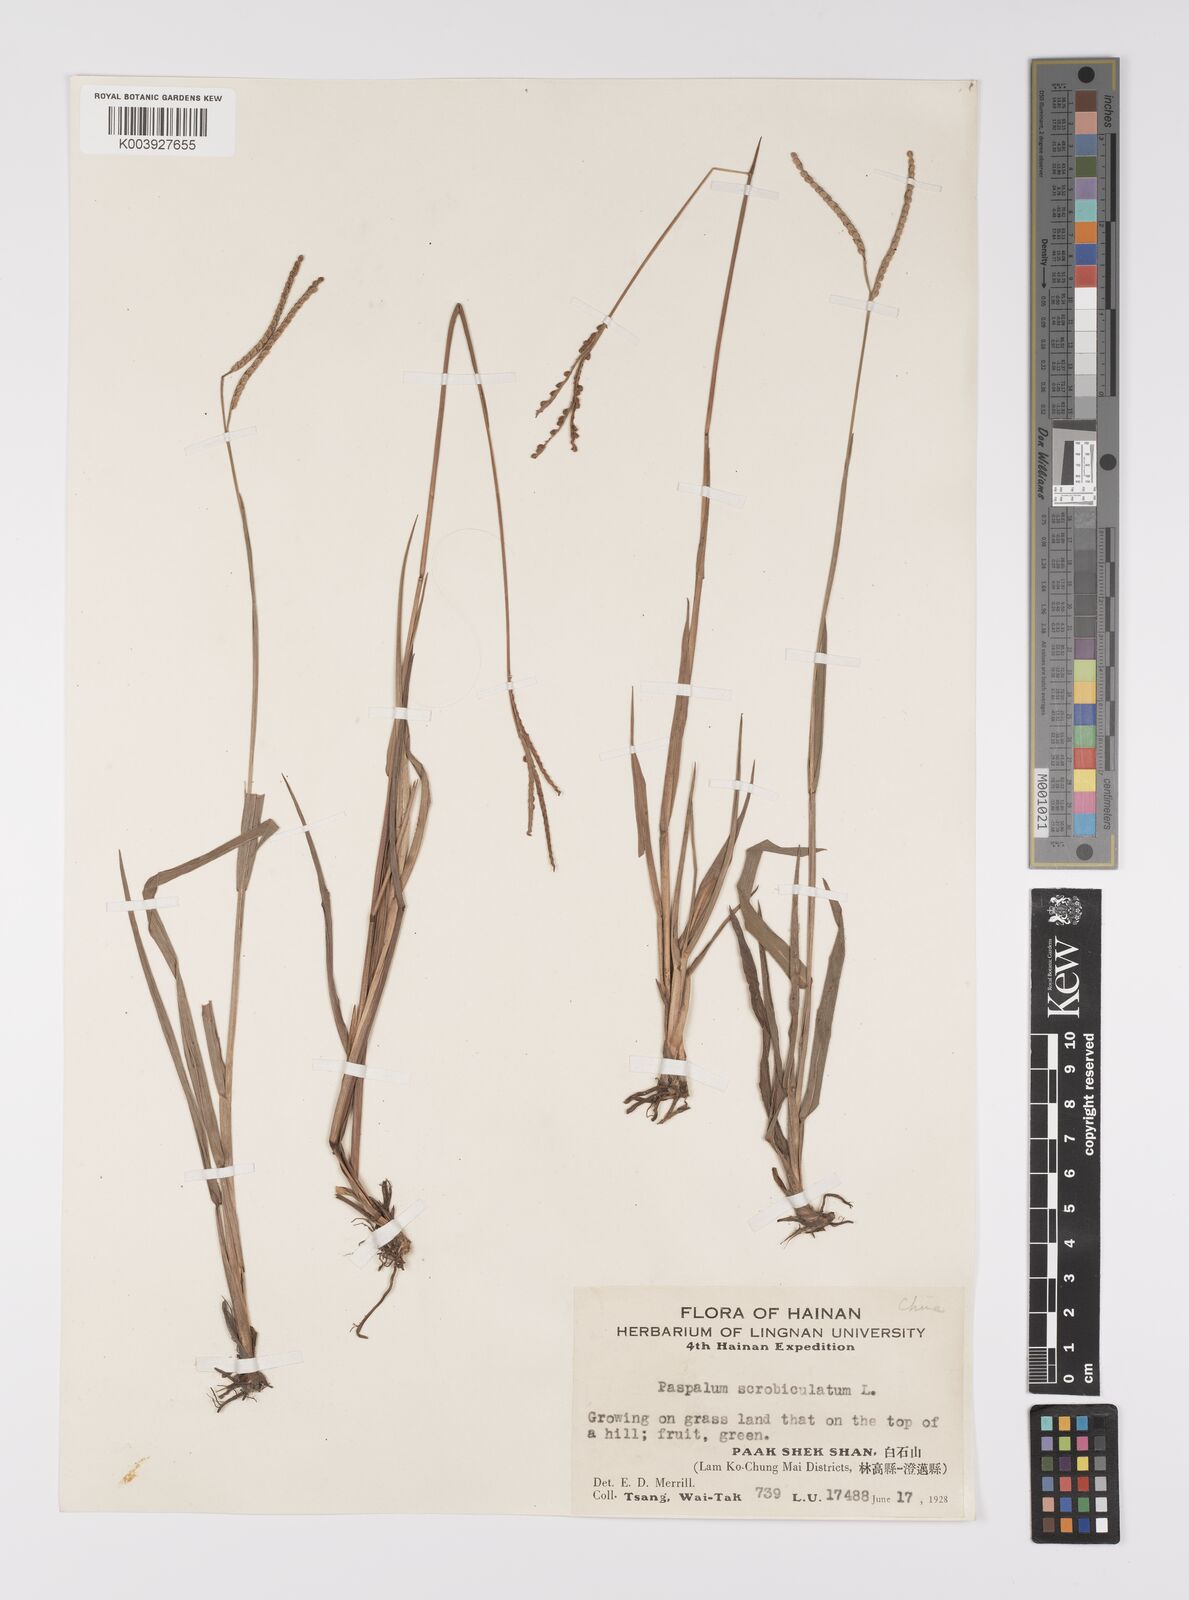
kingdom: Plantae
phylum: Tracheophyta
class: Liliopsida
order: Poales
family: Poaceae
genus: Paspalum
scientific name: Paspalum scrobiculatum
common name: Kodo millet
